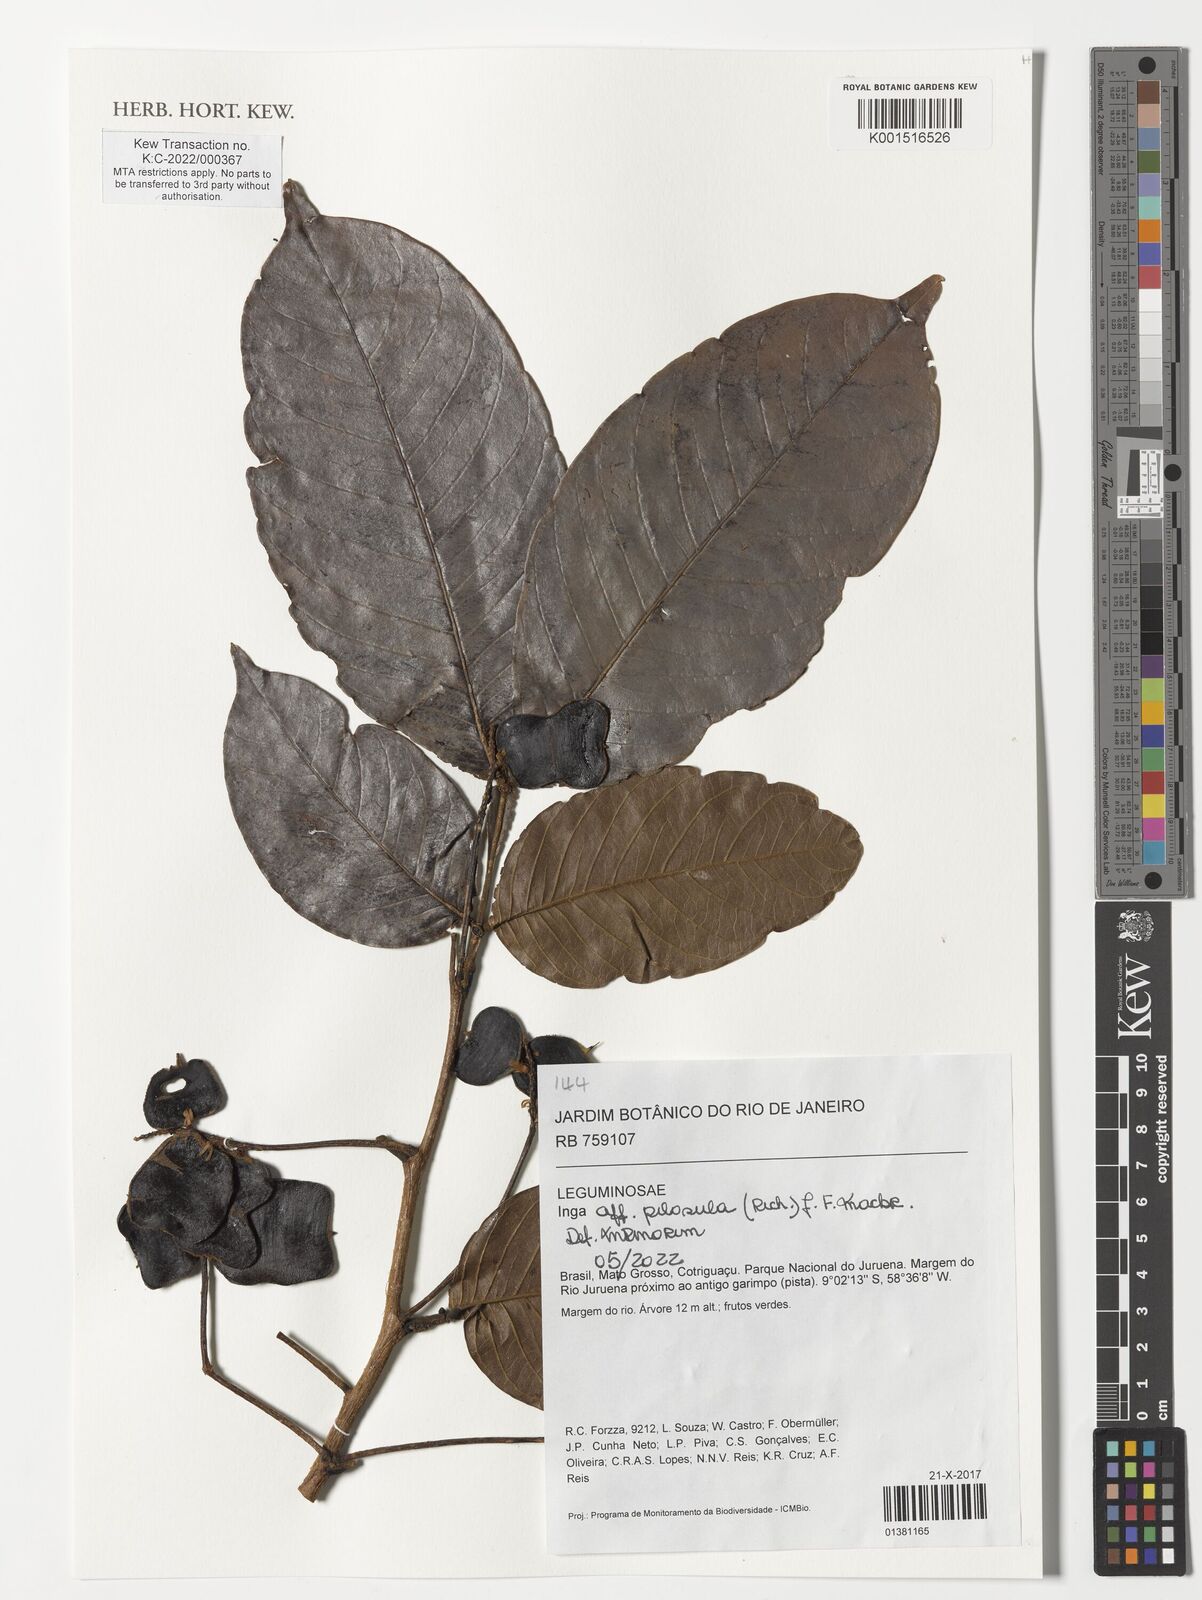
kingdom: Plantae
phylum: Tracheophyta
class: Magnoliopsida
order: Fabales
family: Fabaceae
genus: Inga
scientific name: Inga pilosula
